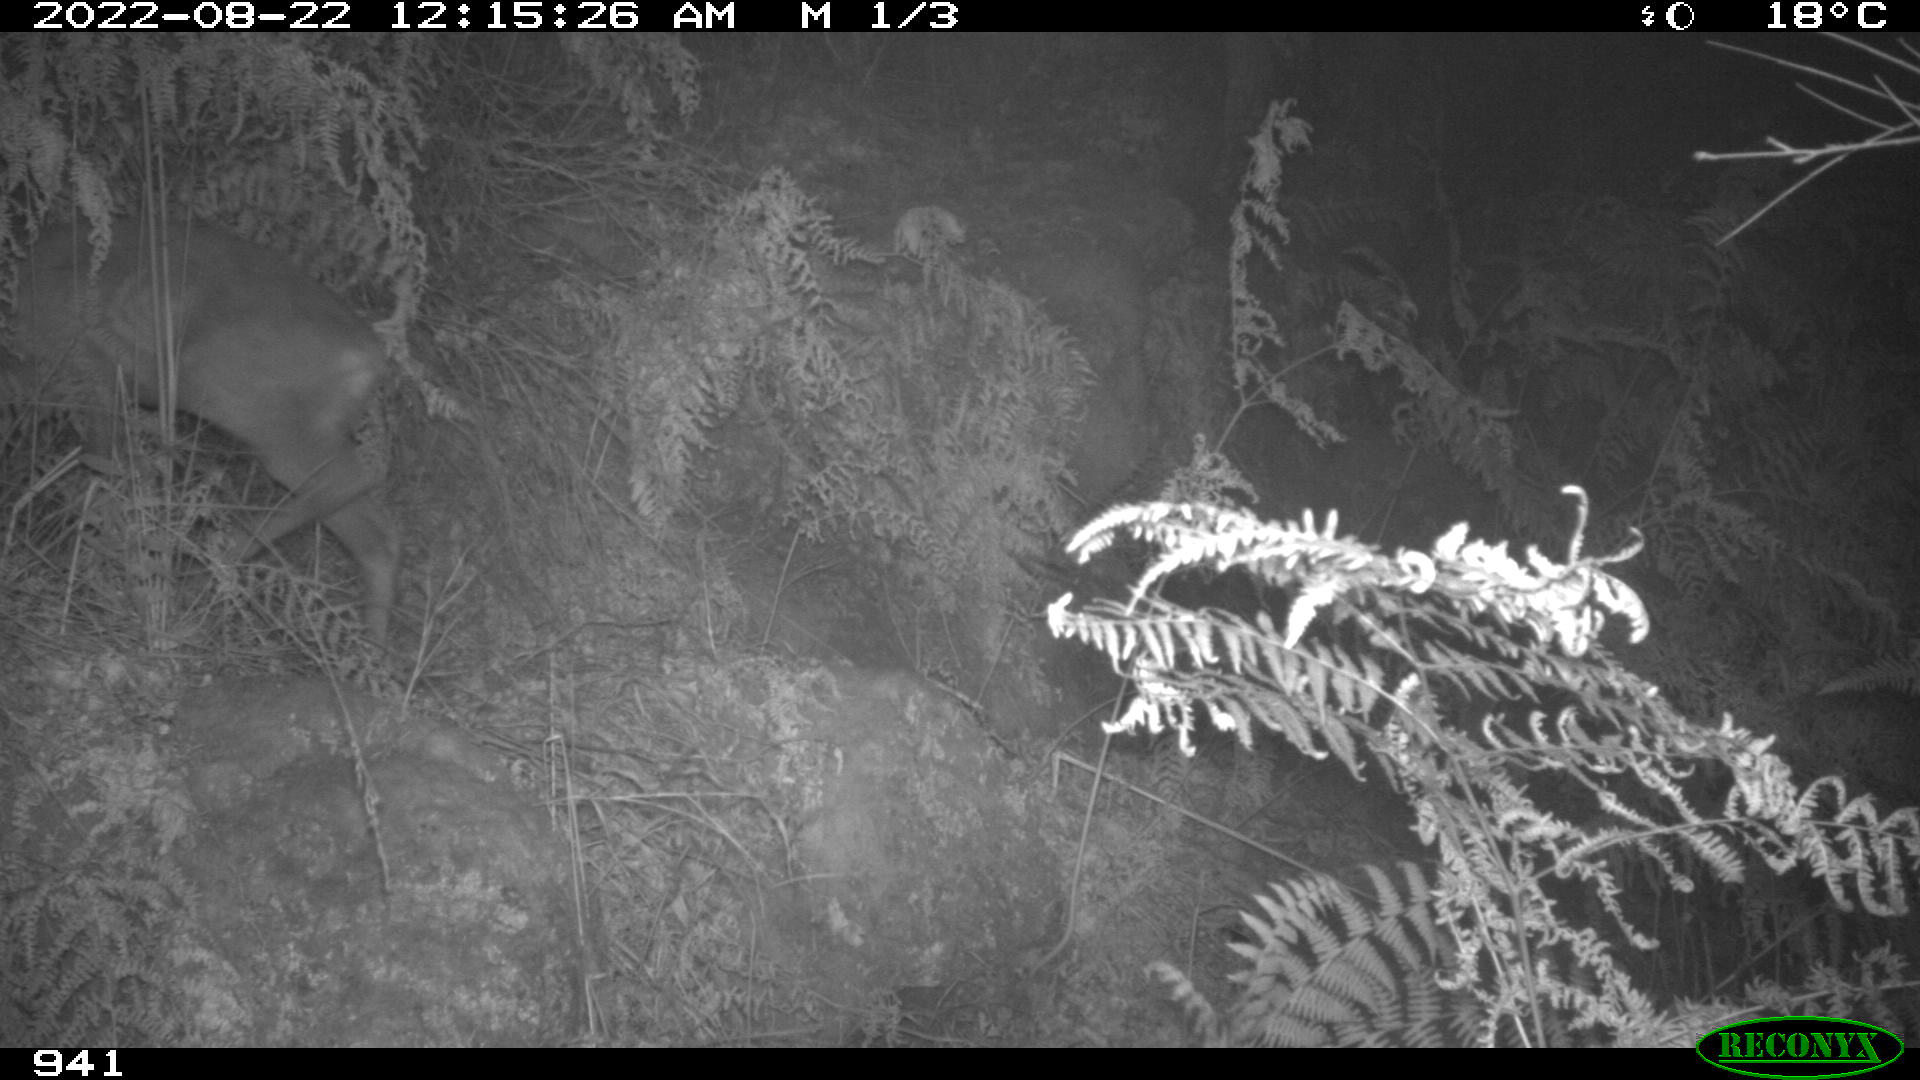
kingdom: Animalia
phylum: Chordata
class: Mammalia
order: Artiodactyla
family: Cervidae
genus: Capreolus
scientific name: Capreolus capreolus
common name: Western roe deer
